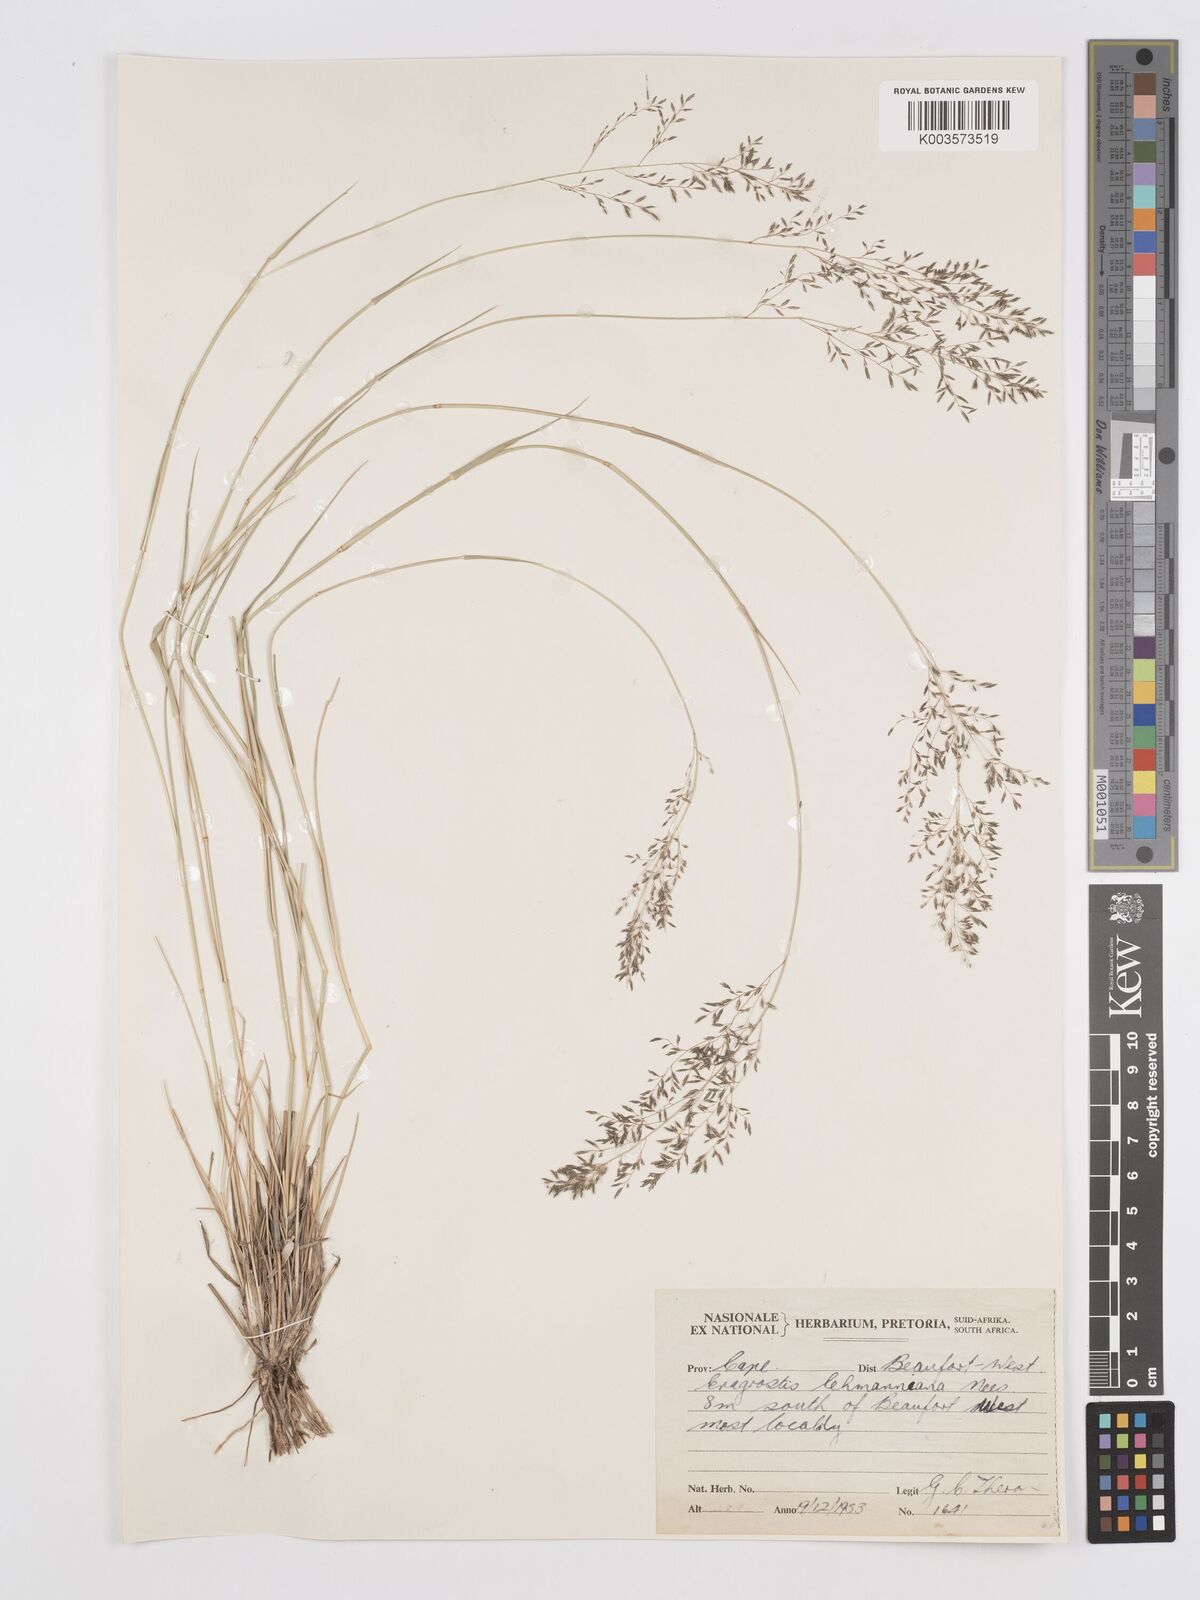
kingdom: Plantae
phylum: Tracheophyta
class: Liliopsida
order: Poales
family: Poaceae
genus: Eragrostis
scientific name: Eragrostis lehmanniana
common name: Lehmann lovegrass
